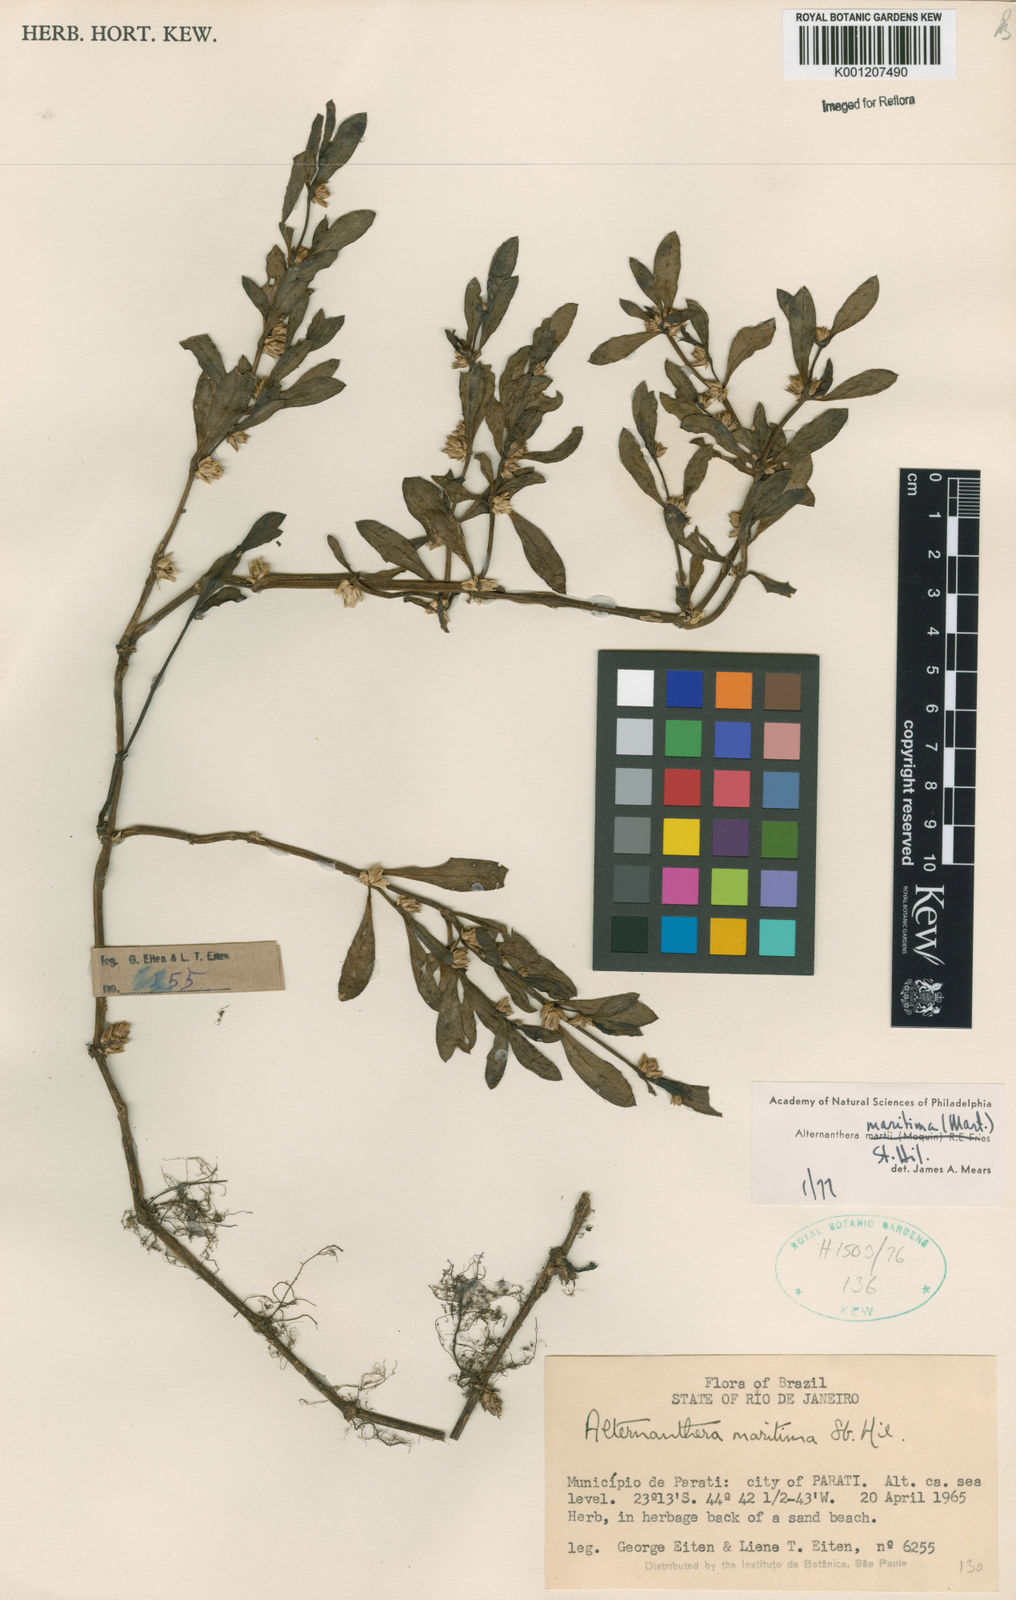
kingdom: Plantae
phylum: Tracheophyta
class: Magnoliopsida
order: Caryophyllales
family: Amaranthaceae
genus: Alternanthera
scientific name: Alternanthera littoralis
